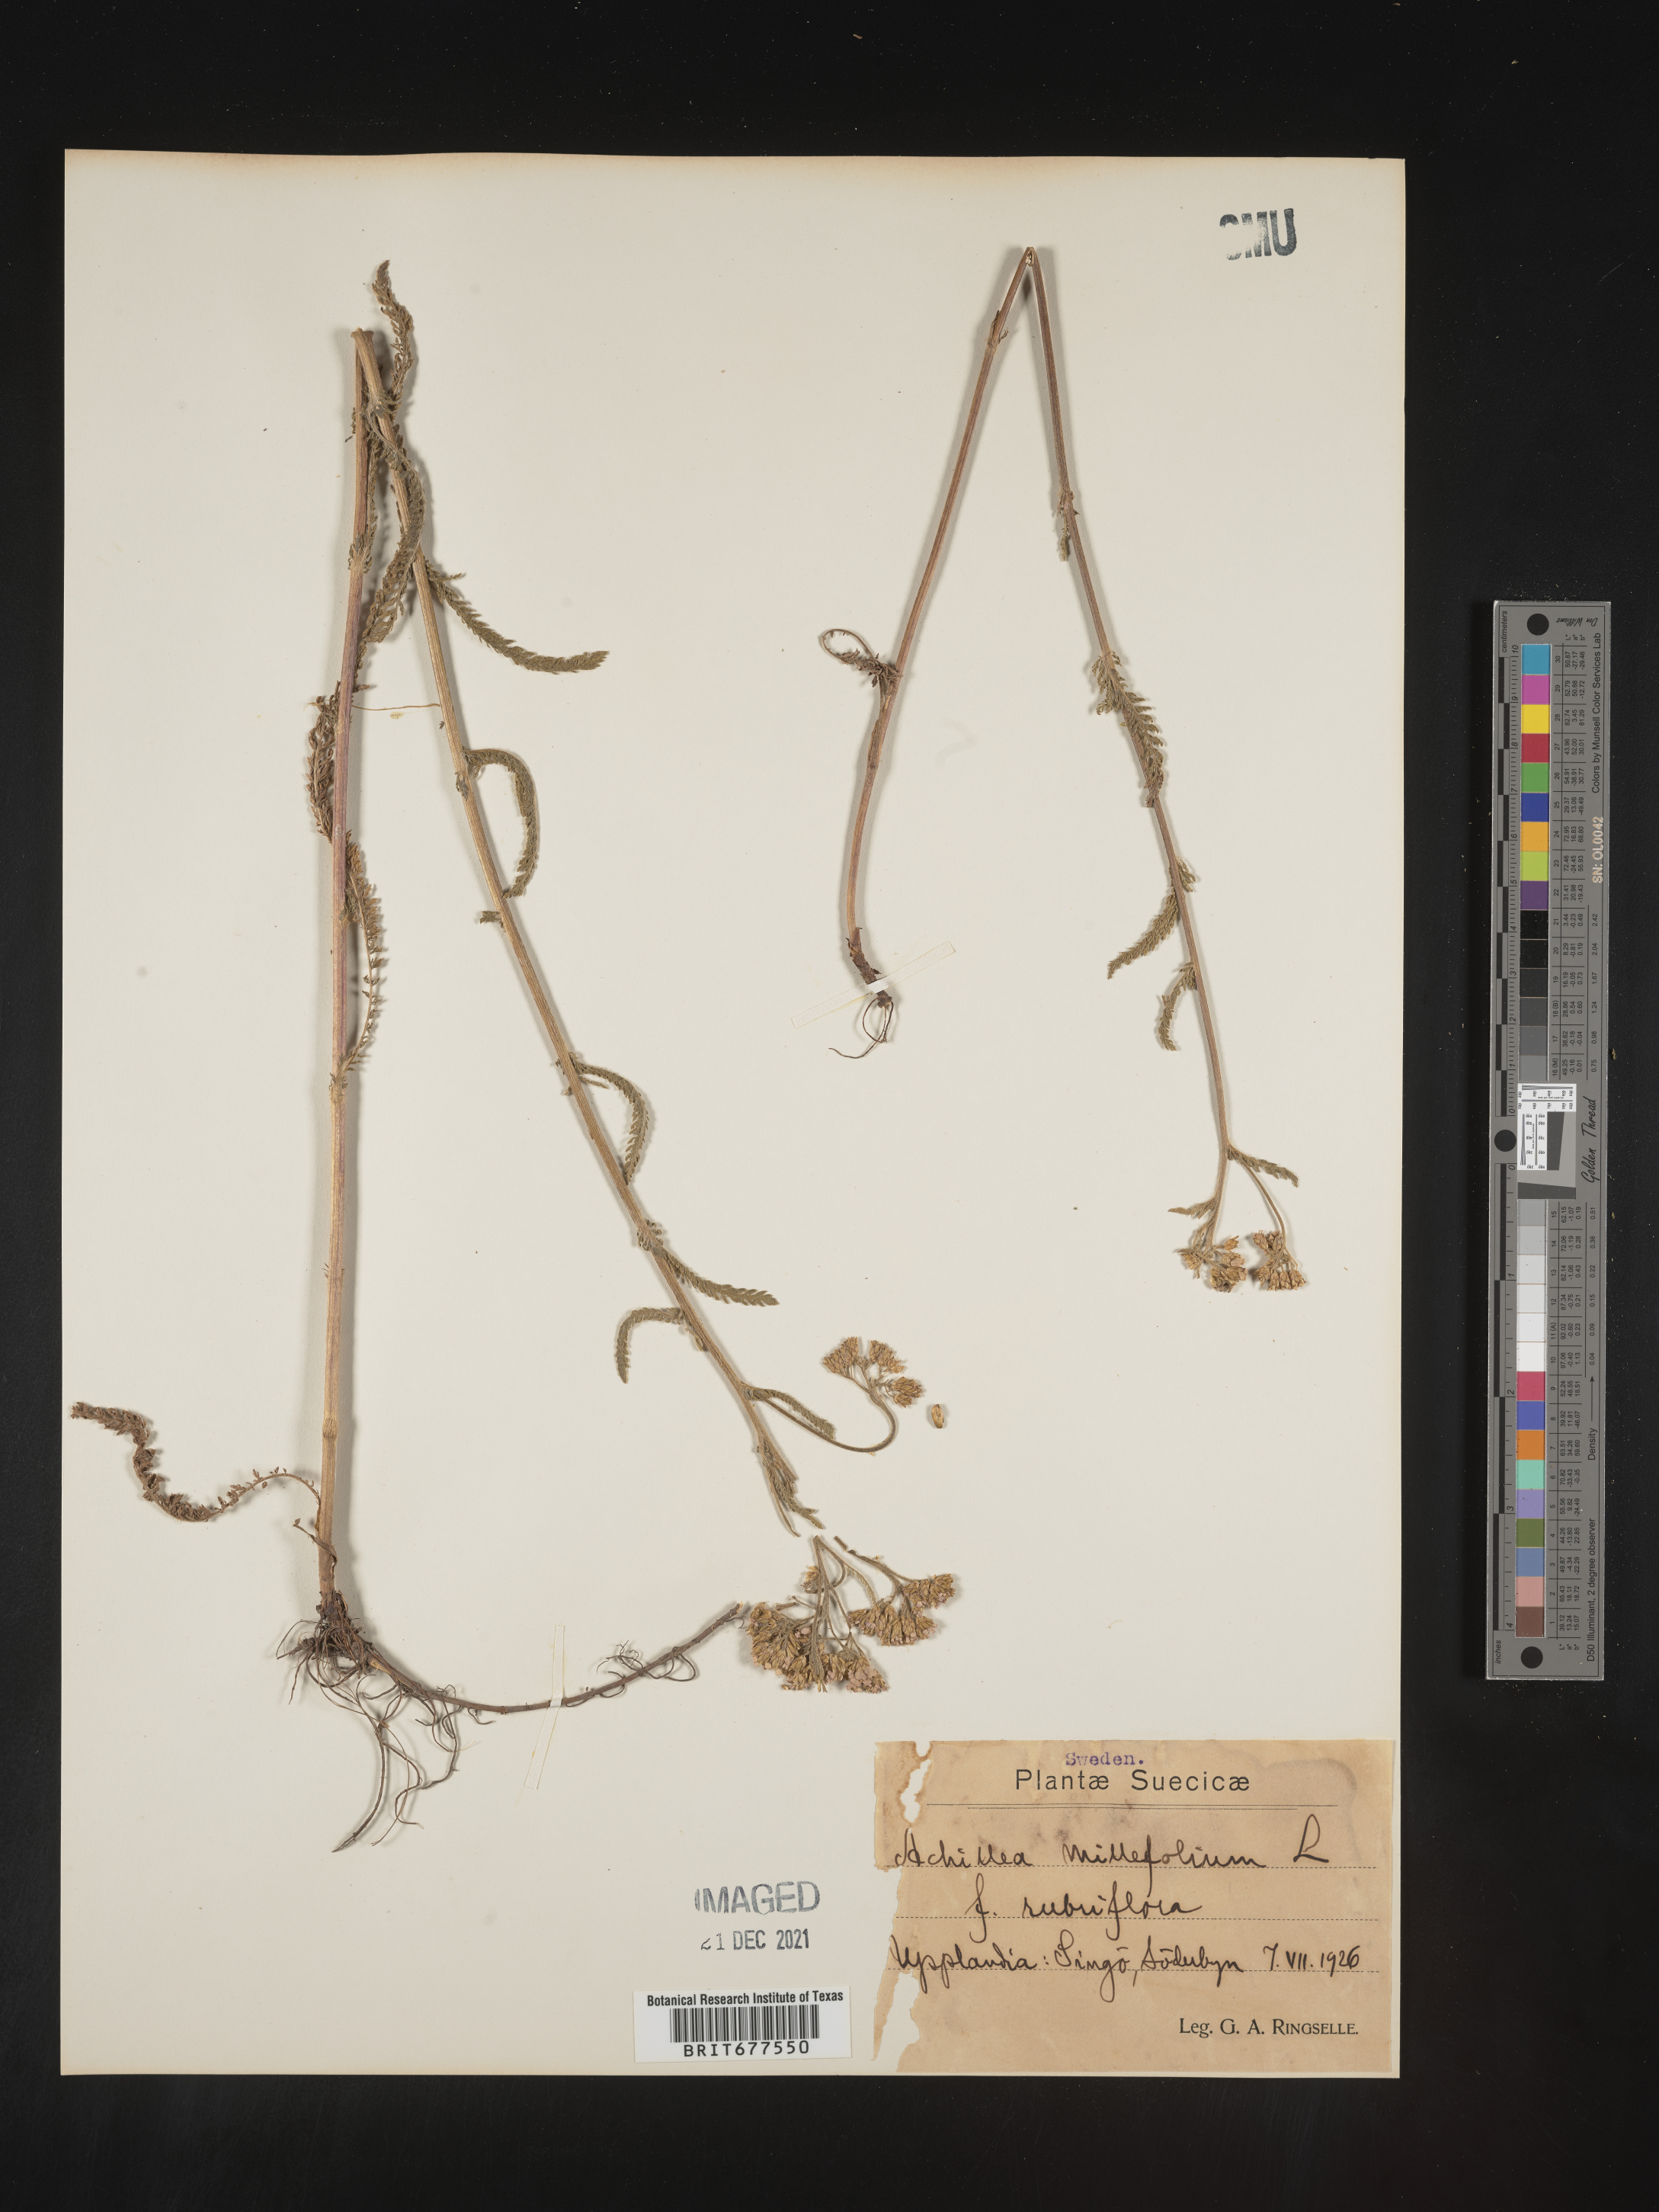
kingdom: Plantae
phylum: Tracheophyta
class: Magnoliopsida
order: Asterales
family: Asteraceae
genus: Achillea
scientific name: Achillea millefolium
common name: Yarrow
